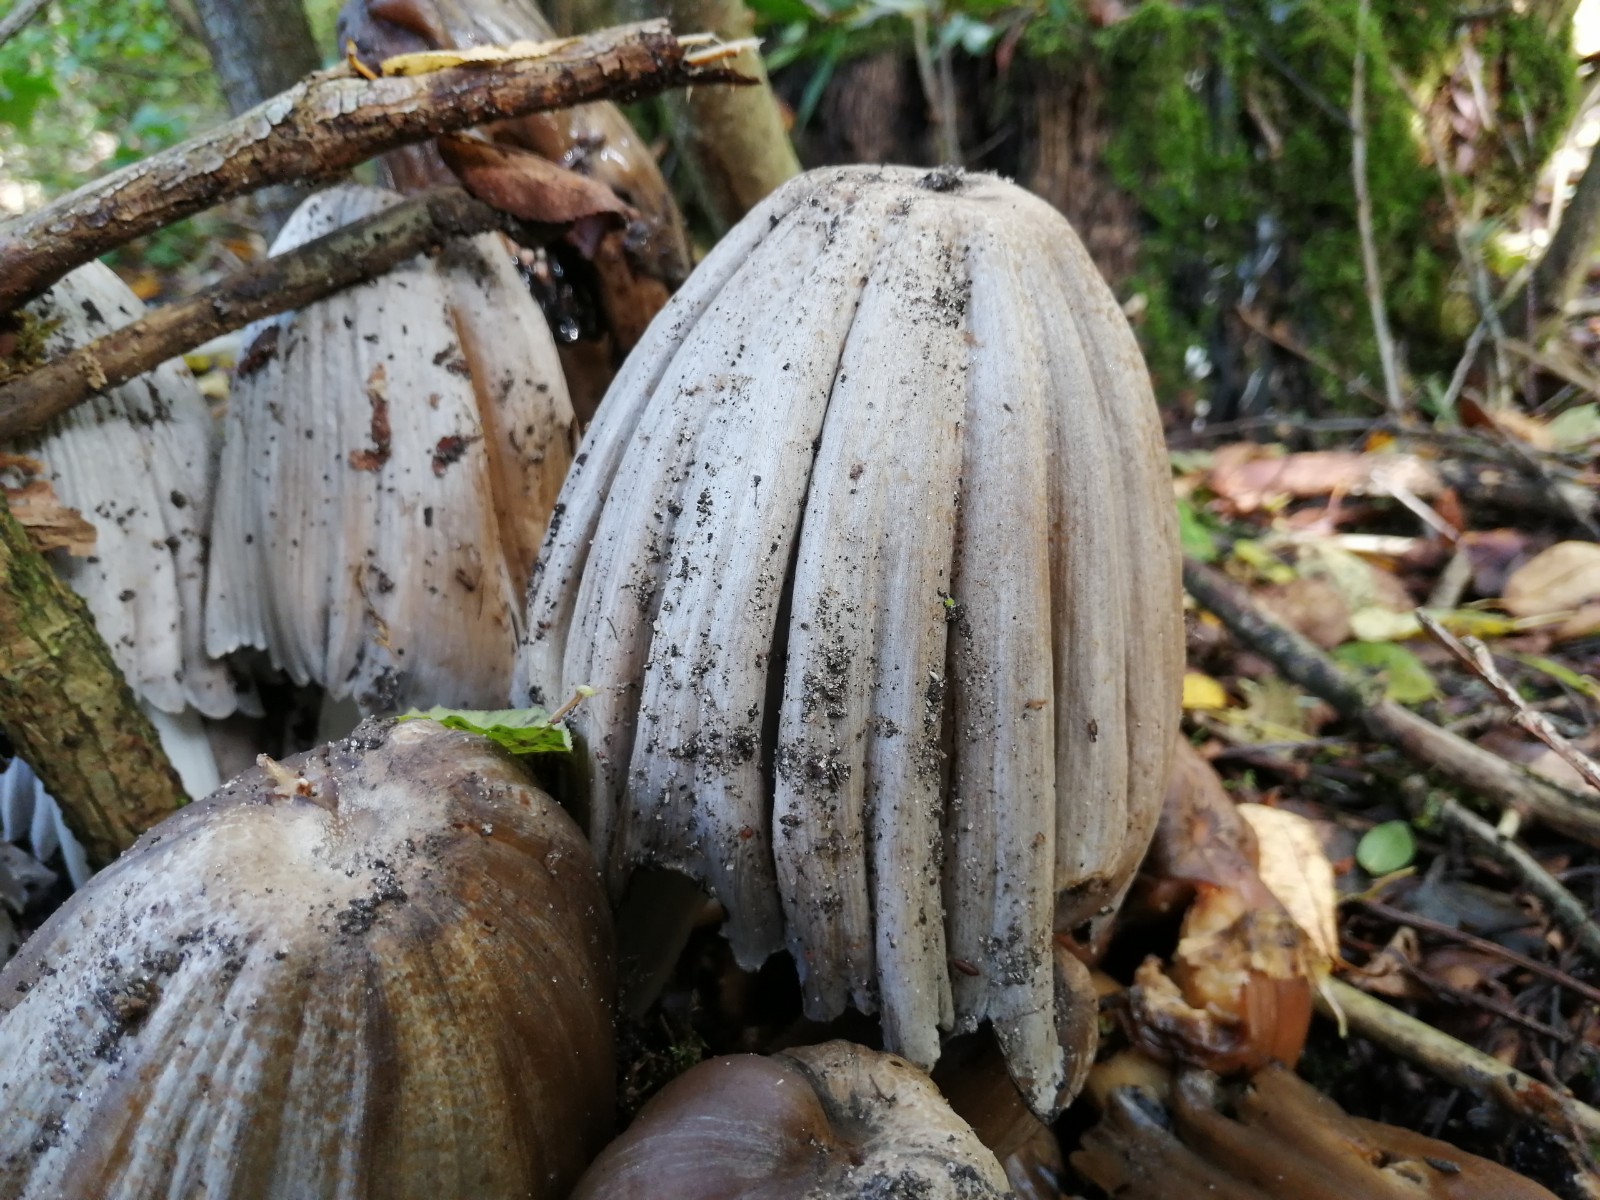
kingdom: Fungi
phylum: Basidiomycota
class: Agaricomycetes
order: Agaricales
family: Psathyrellaceae
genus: Coprinopsis
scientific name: Coprinopsis atramentaria
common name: almindelig blækhat
